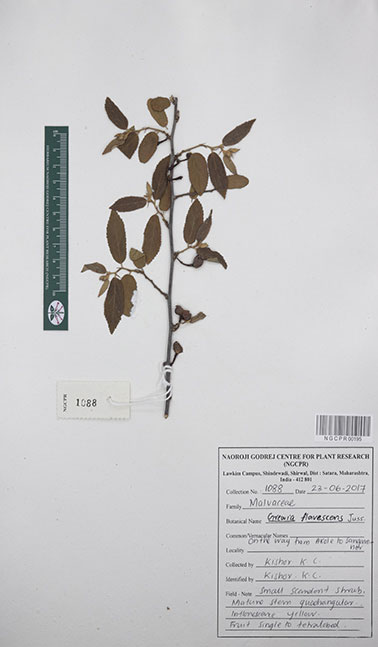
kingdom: Plantae
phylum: Tracheophyta
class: Magnoliopsida
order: Malvales
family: Malvaceae
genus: Grewia
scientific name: Grewia flavescens
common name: Sandpaper raisin
